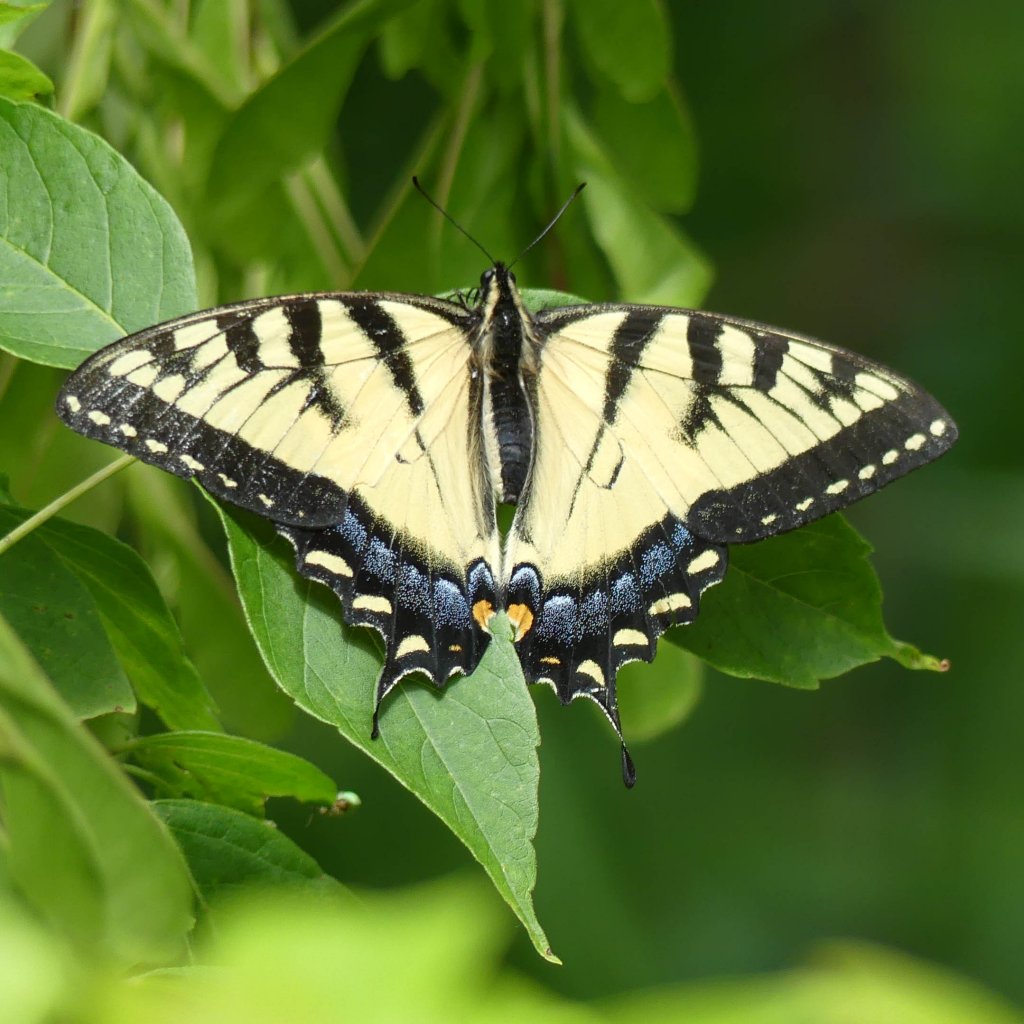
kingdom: Animalia
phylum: Arthropoda
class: Insecta
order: Lepidoptera
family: Papilionidae
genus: Pterourus
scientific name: Pterourus glaucus
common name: Eastern Tiger Swallowtail
